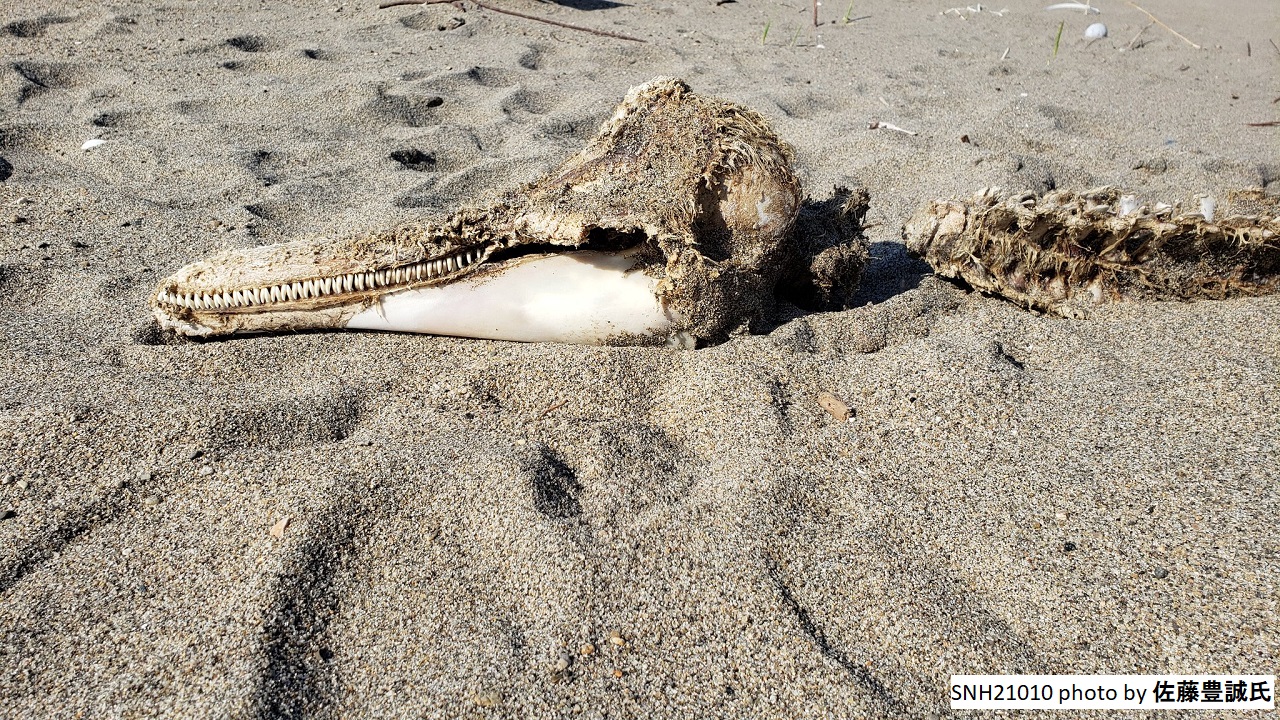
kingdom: Animalia
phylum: Chordata
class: Mammalia
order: Cetacea
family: Delphinidae
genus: Lagenorhynchus
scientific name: Lagenorhynchus obliquidens
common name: Pacific white-sided dolphin
